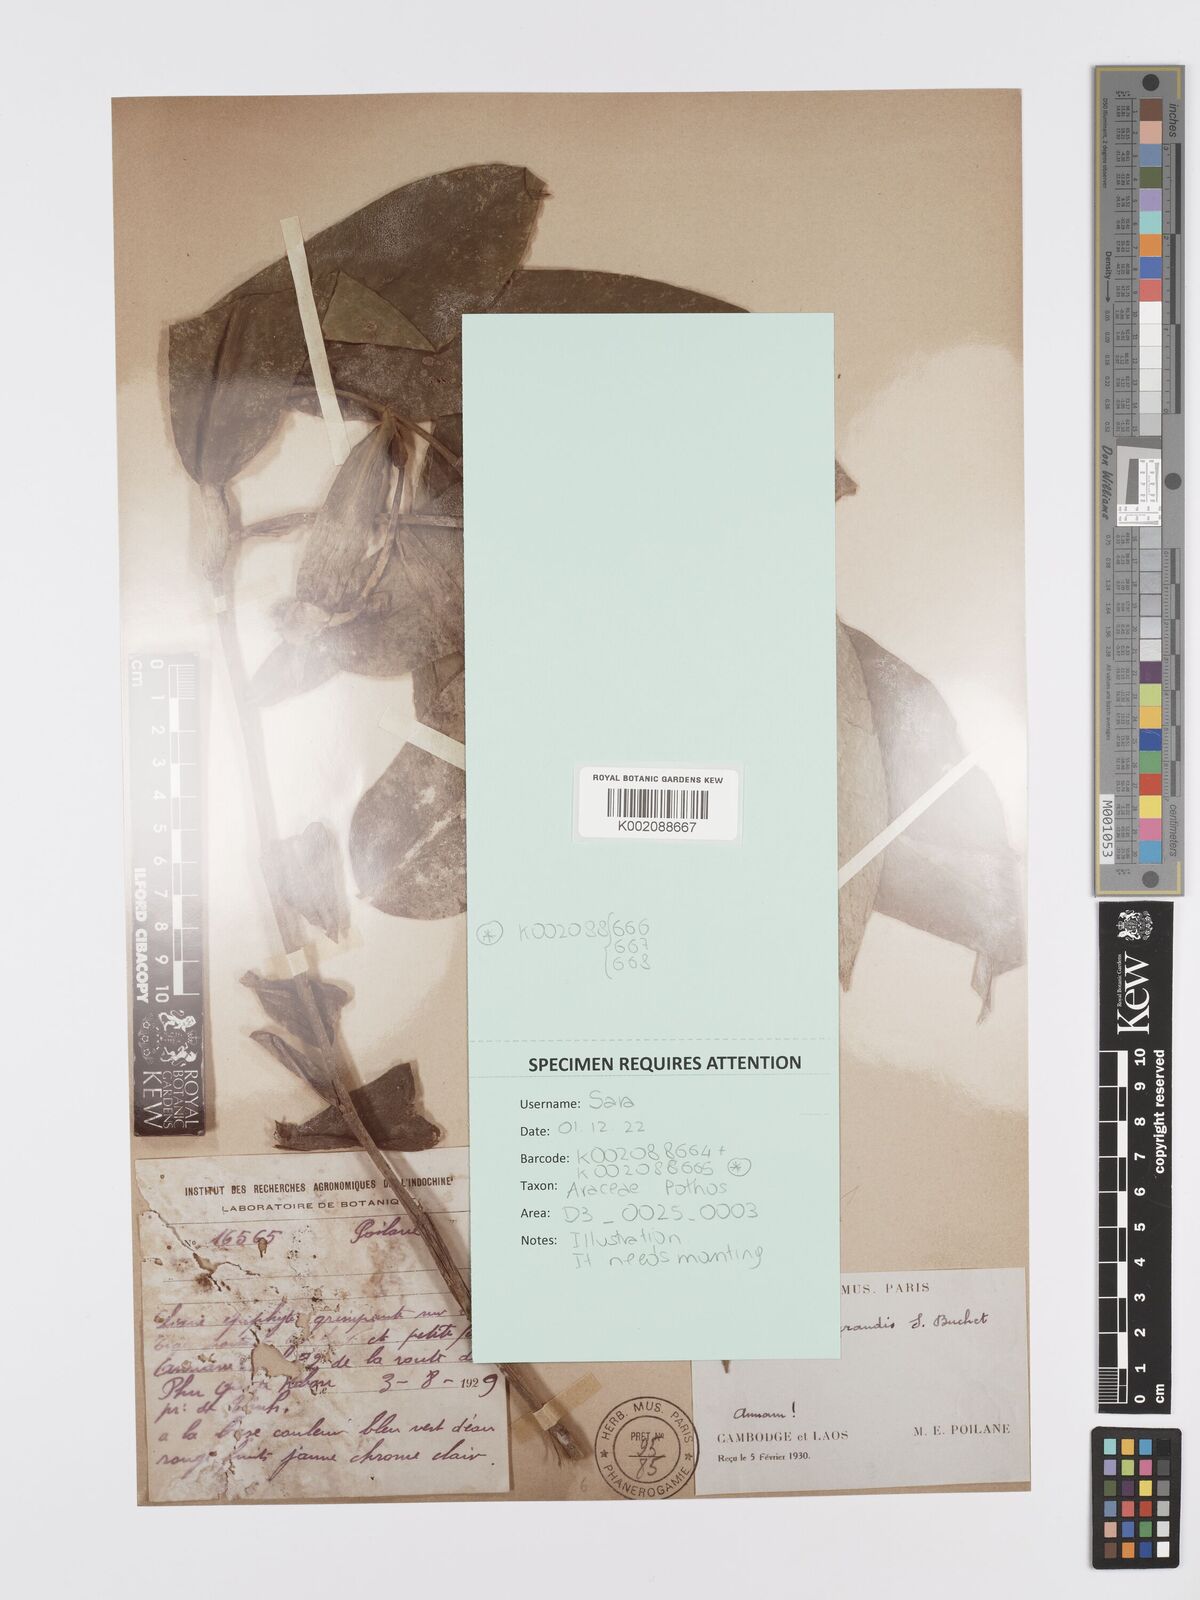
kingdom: Plantae
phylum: Tracheophyta
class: Liliopsida
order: Alismatales
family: Araceae
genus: Pothos
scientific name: Pothos grandis
